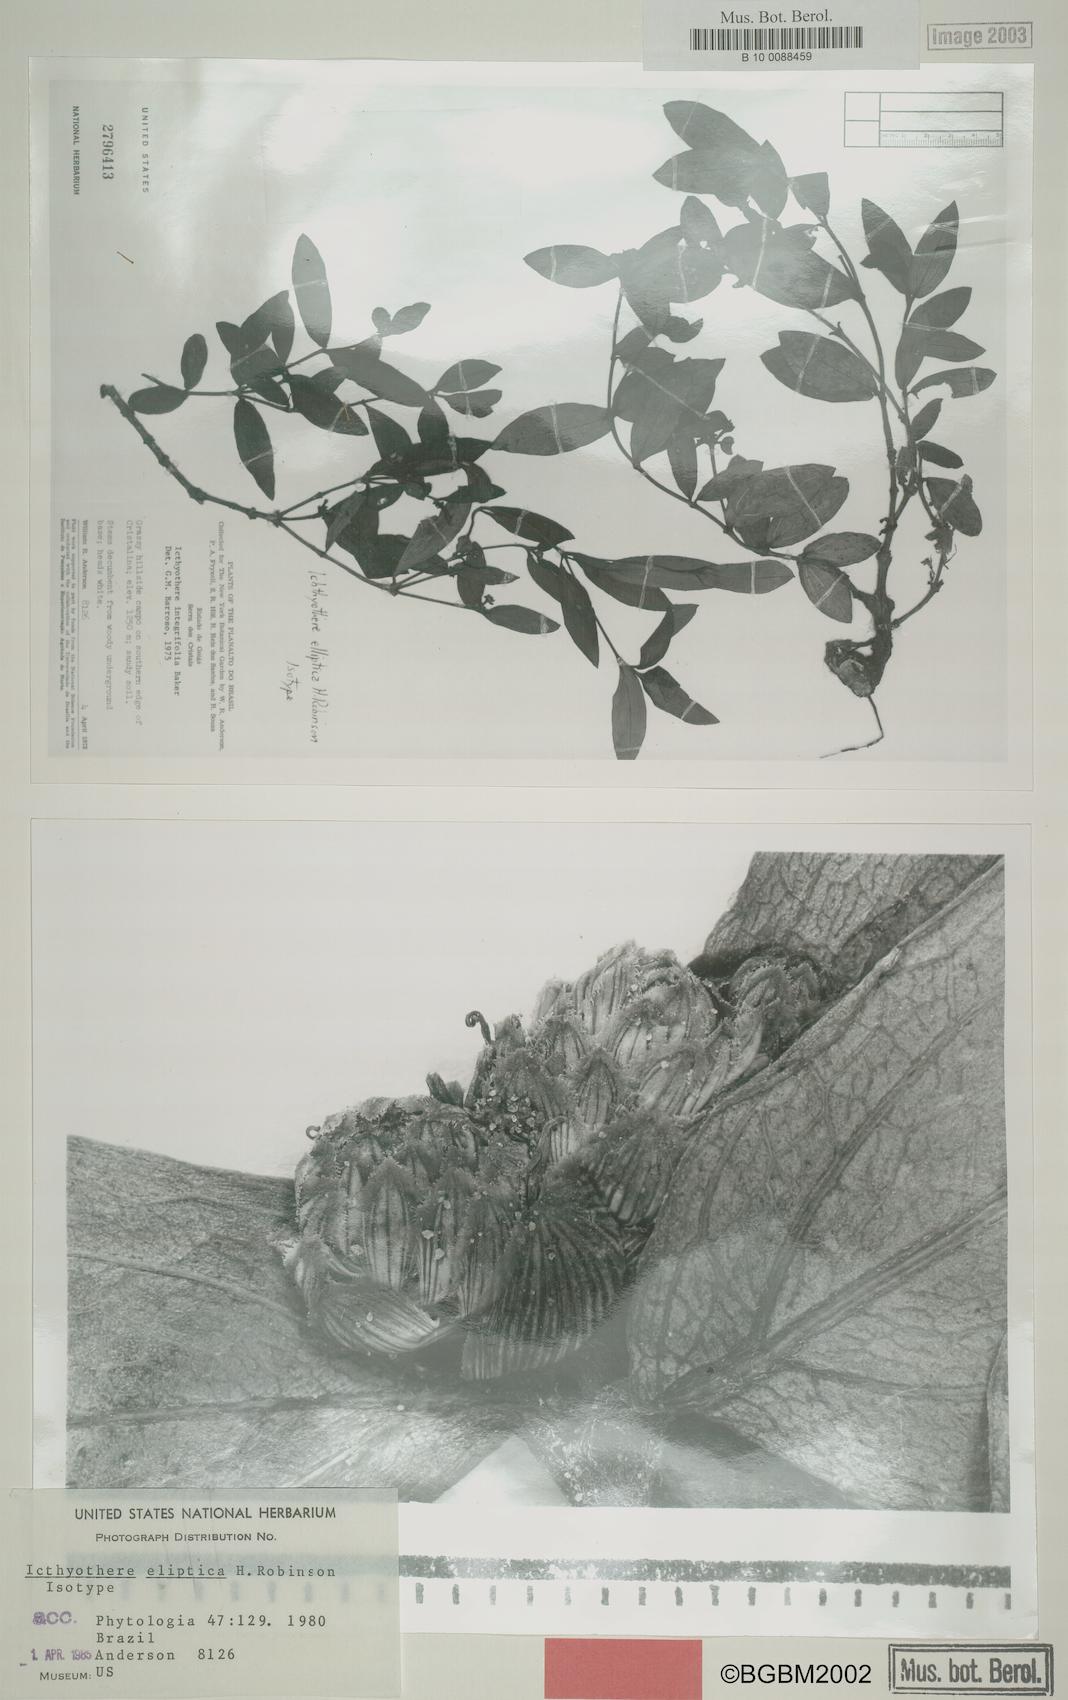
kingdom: Plantae
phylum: Tracheophyta
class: Magnoliopsida
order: Asterales
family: Asteraceae
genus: Icthyothere
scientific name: Icthyothere
